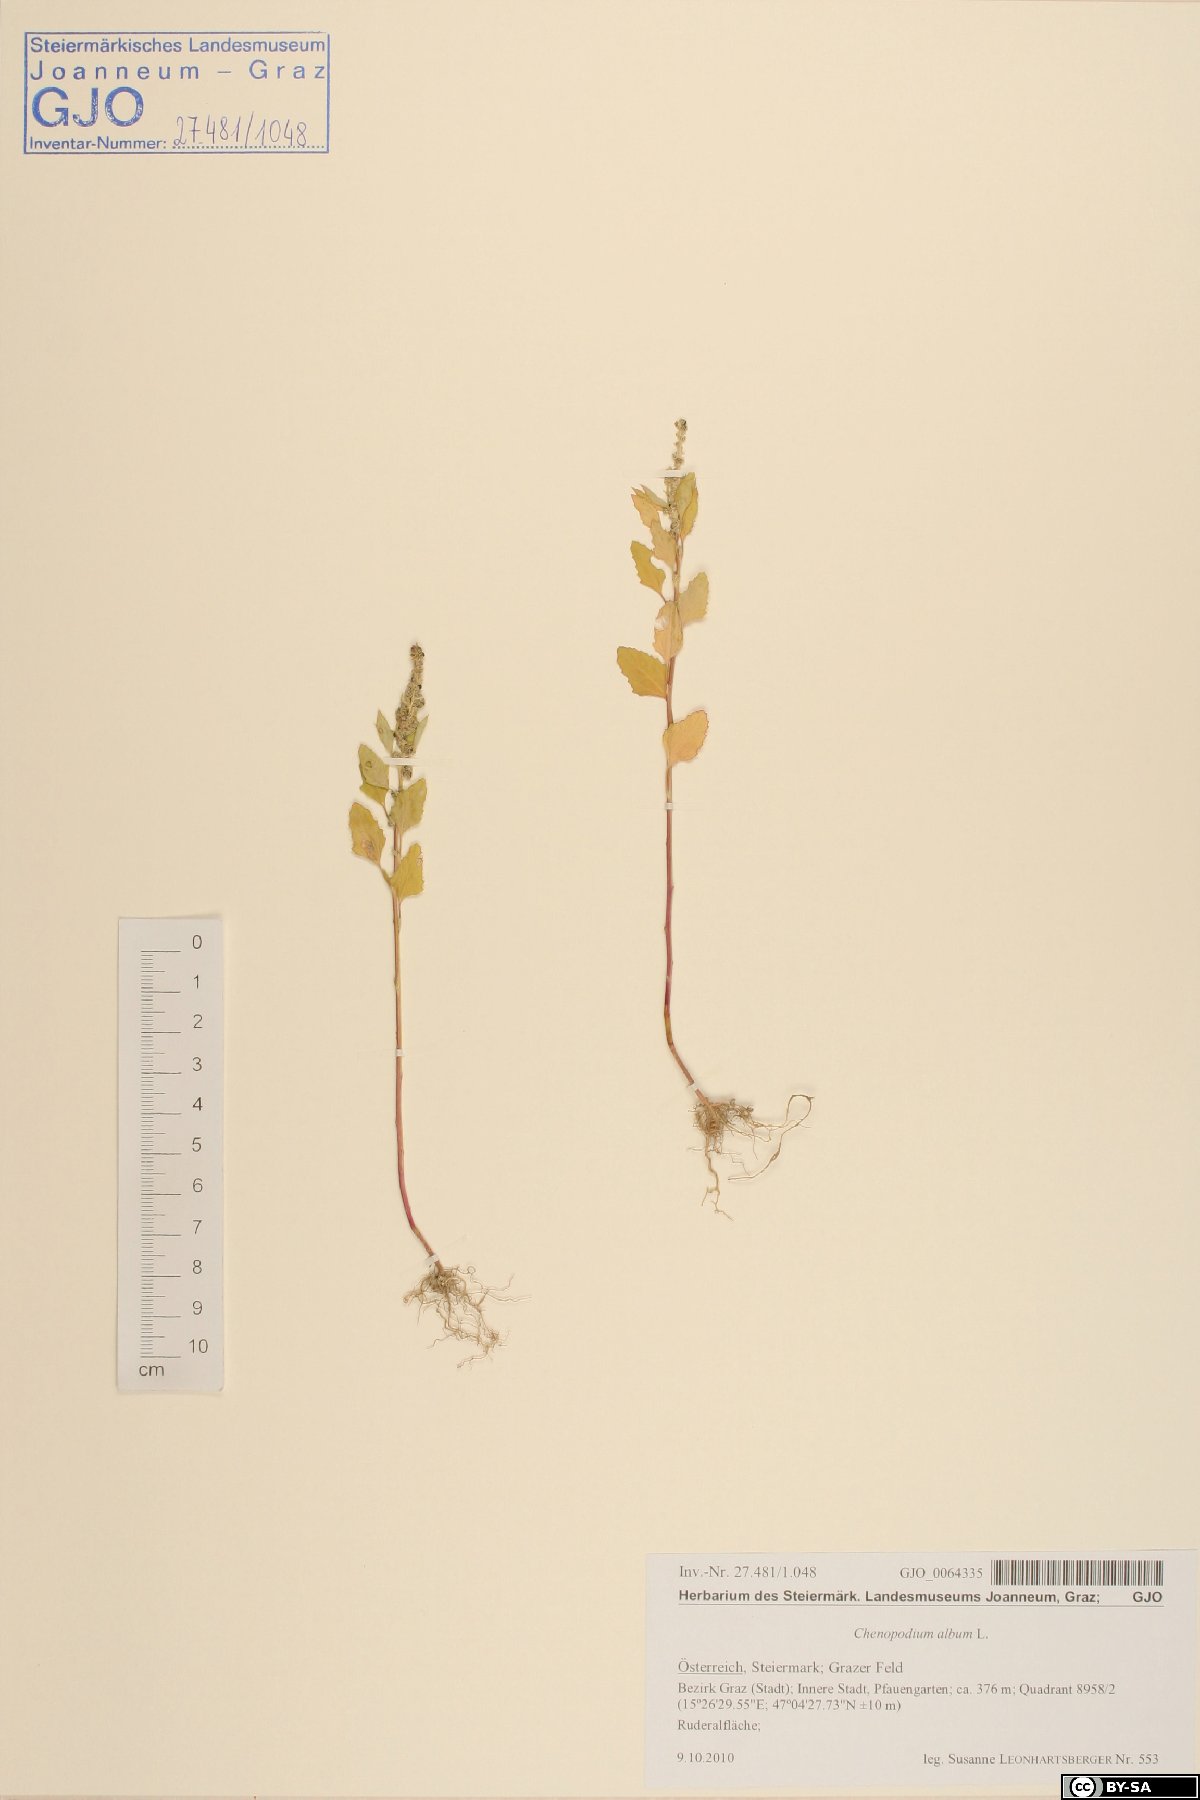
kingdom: Plantae
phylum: Tracheophyta
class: Magnoliopsida
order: Caryophyllales
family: Amaranthaceae
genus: Chenopodium
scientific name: Chenopodium album
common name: Fat-hen
